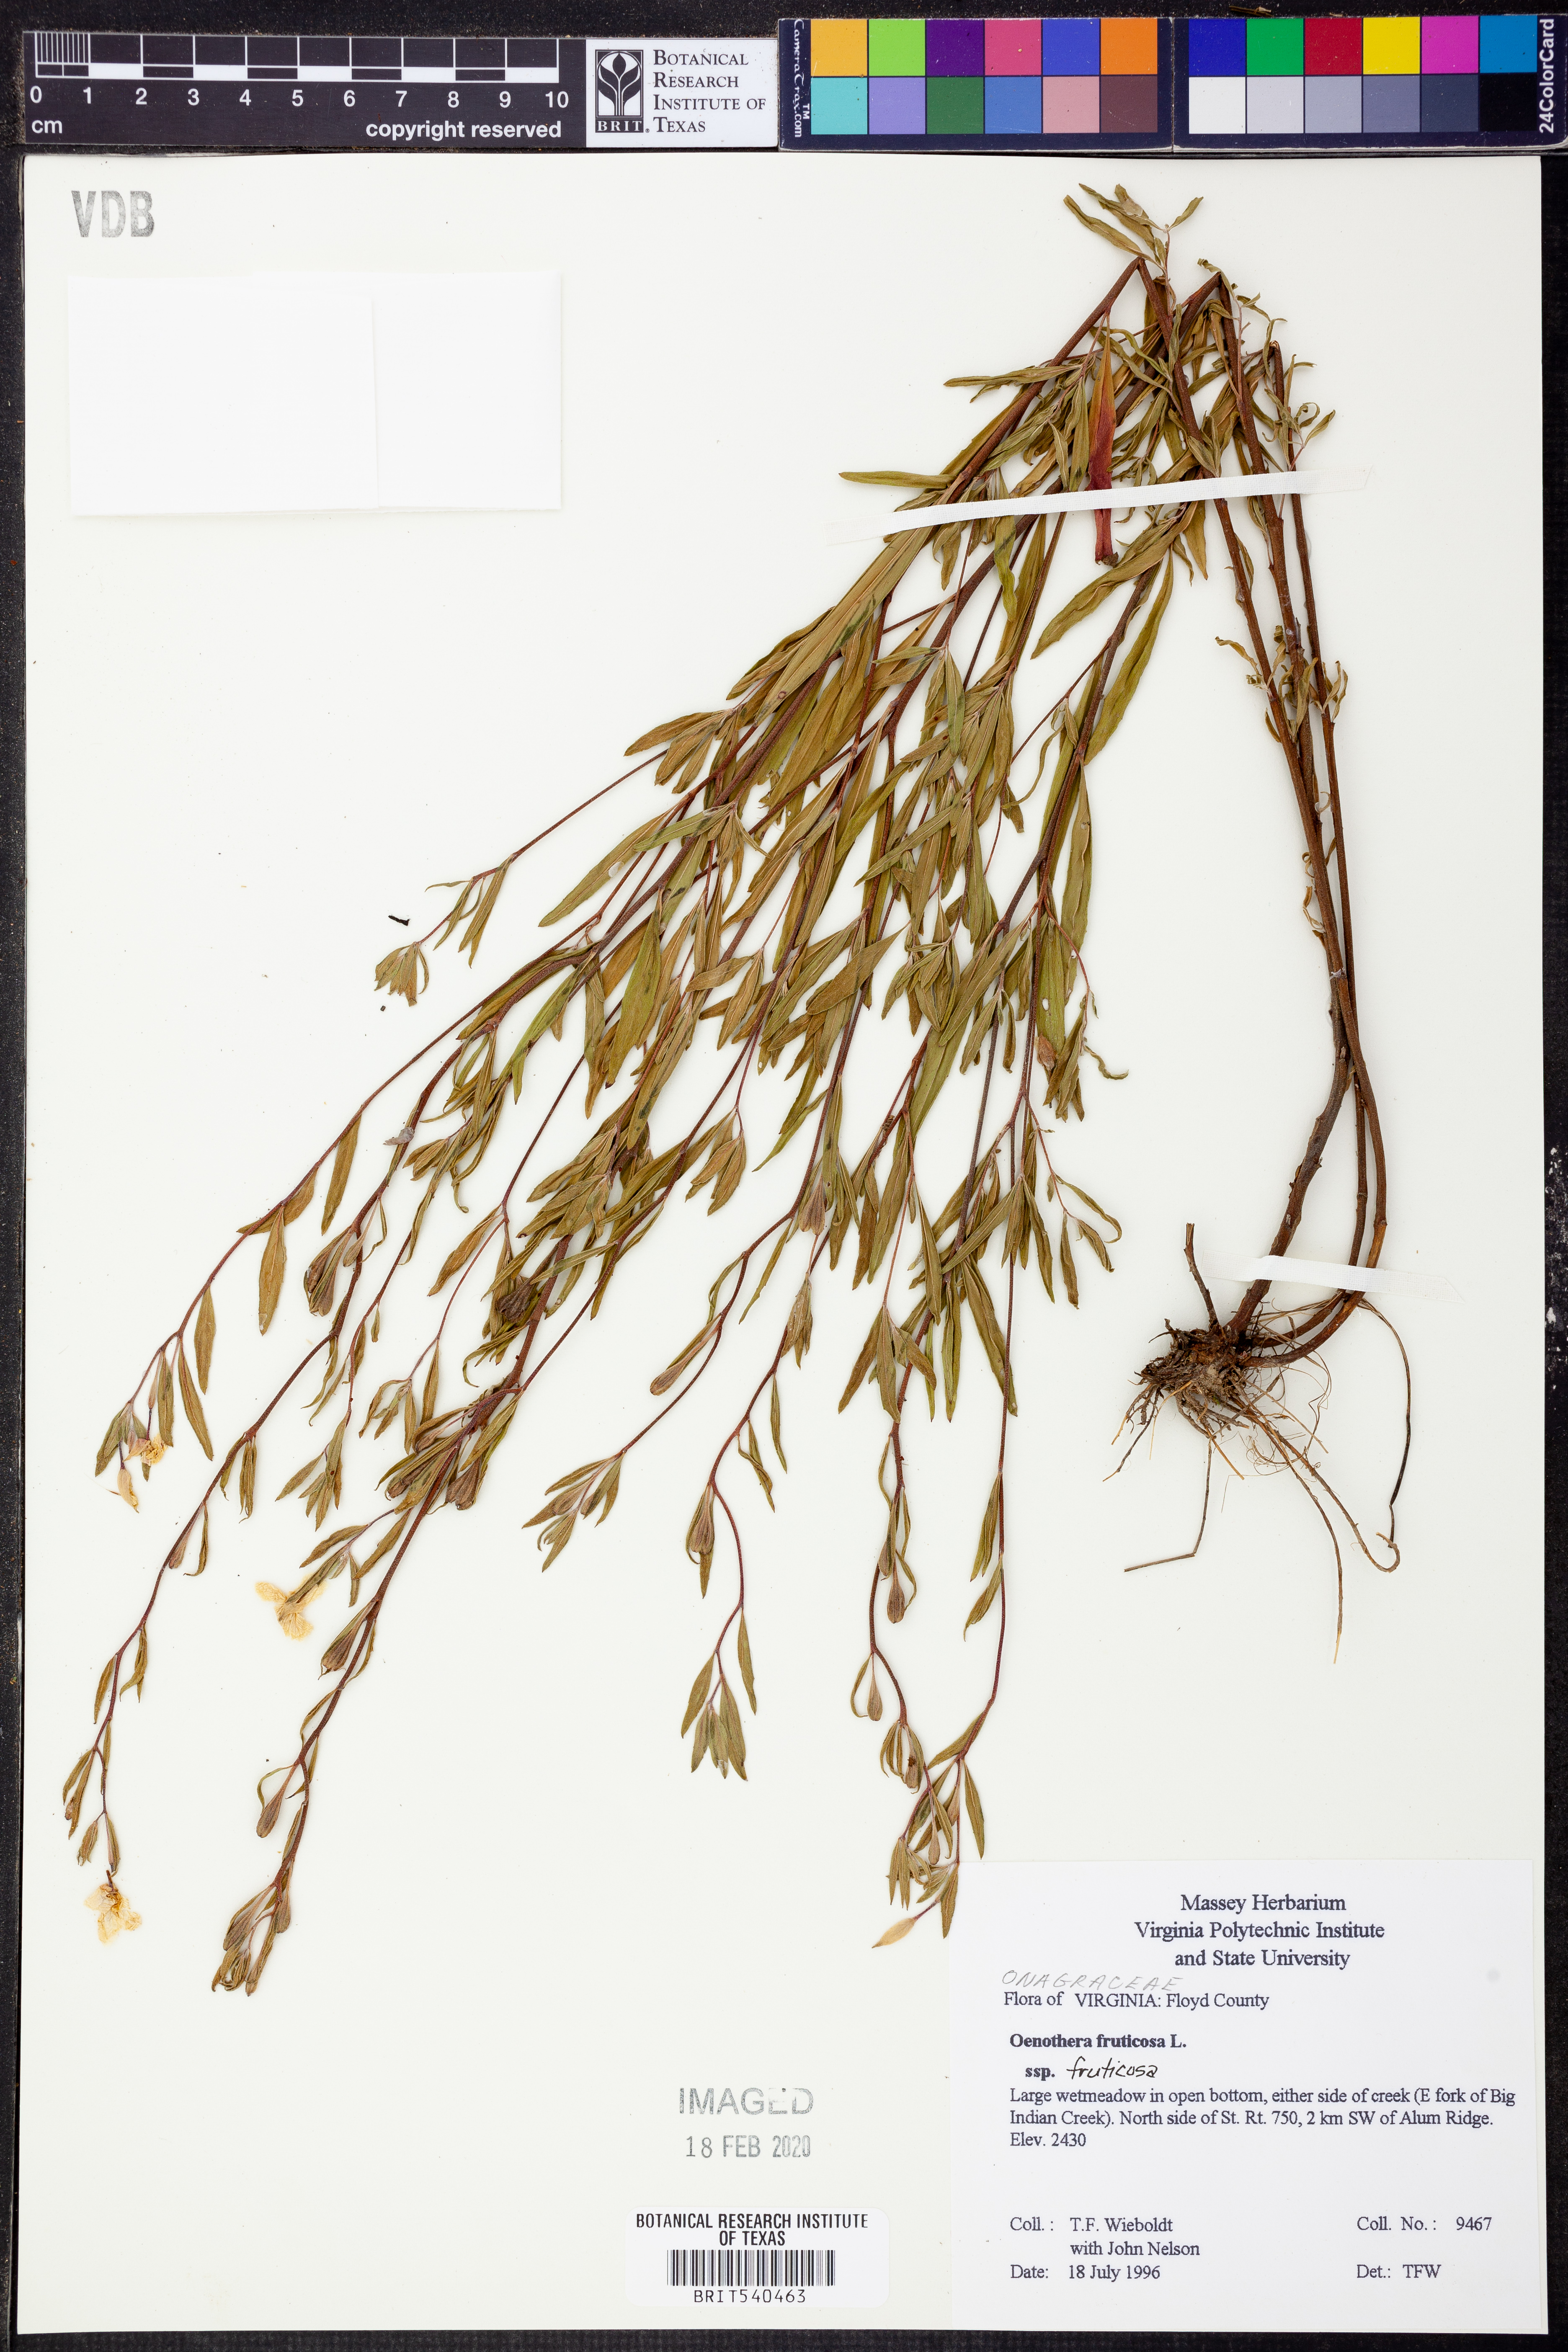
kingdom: Plantae
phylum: Tracheophyta
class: Magnoliopsida
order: Myrtales
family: Onagraceae
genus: Oenothera
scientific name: Oenothera fruticosa
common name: Southern sundrops
